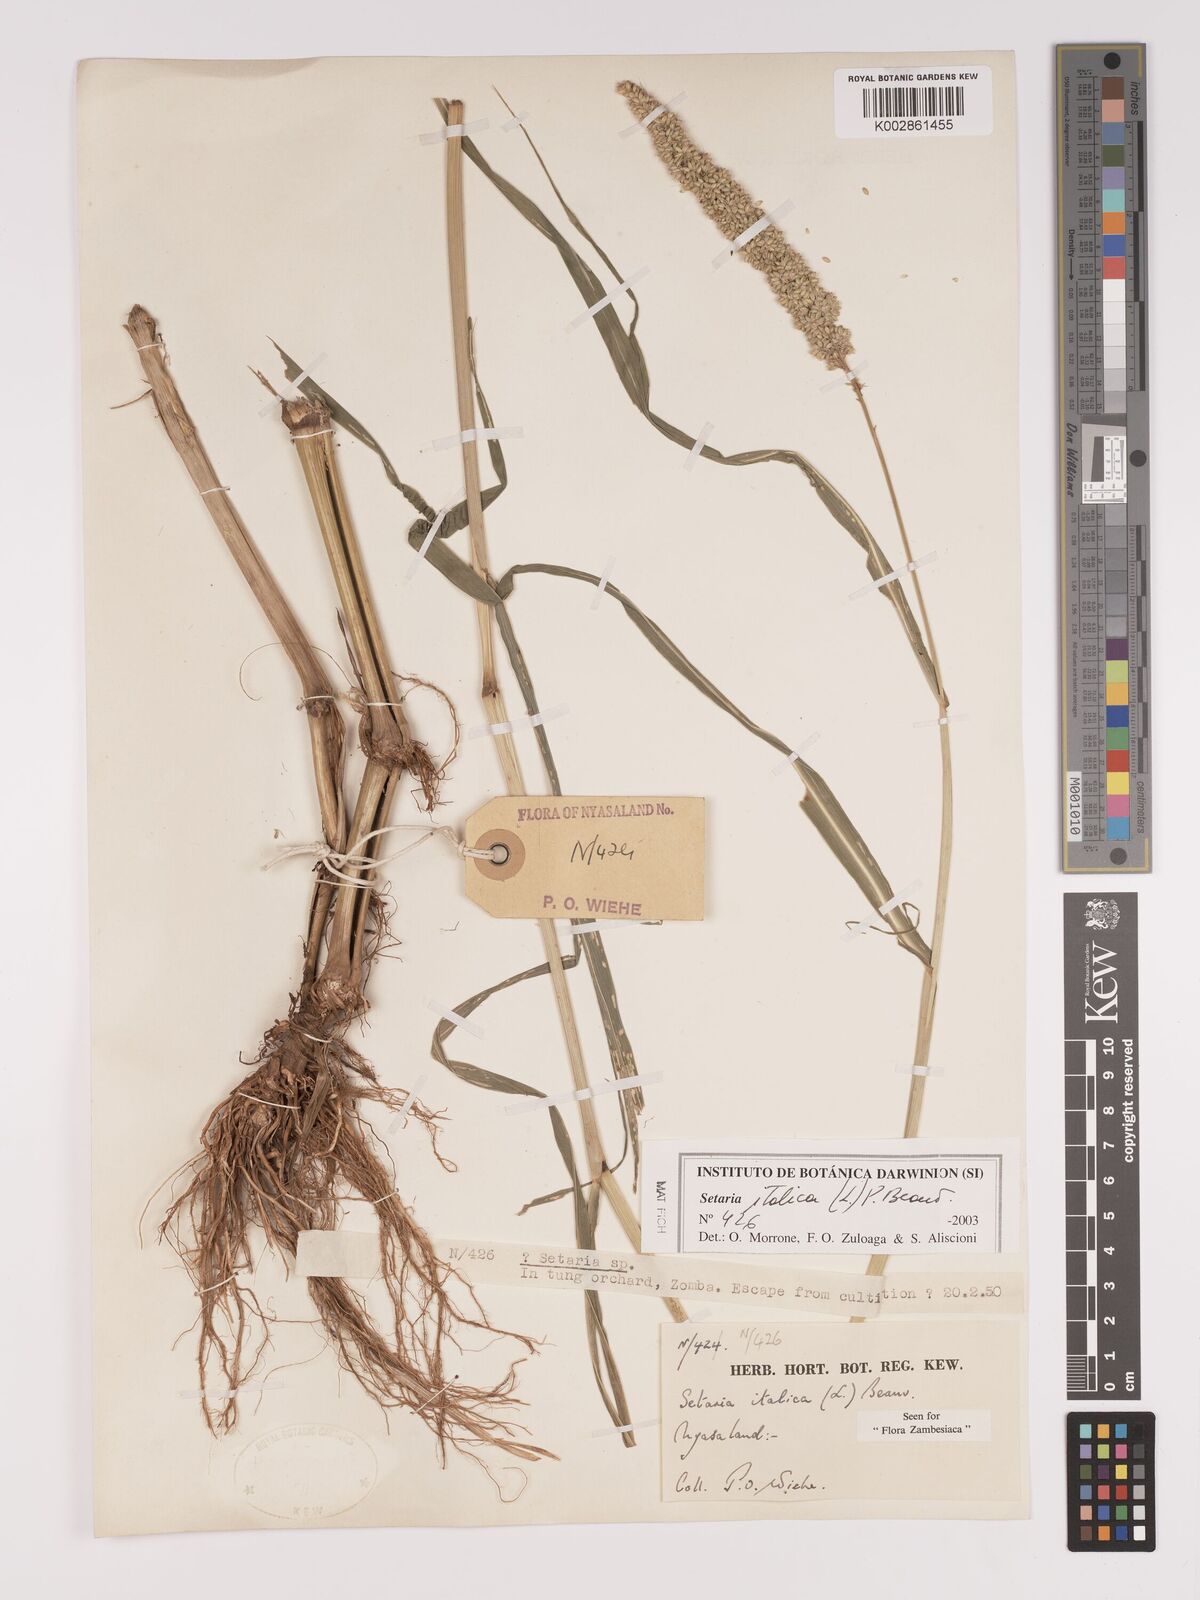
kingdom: Plantae
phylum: Tracheophyta
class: Liliopsida
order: Poales
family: Poaceae
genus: Setaria
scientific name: Setaria italica
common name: Foxtail bristle-grass
